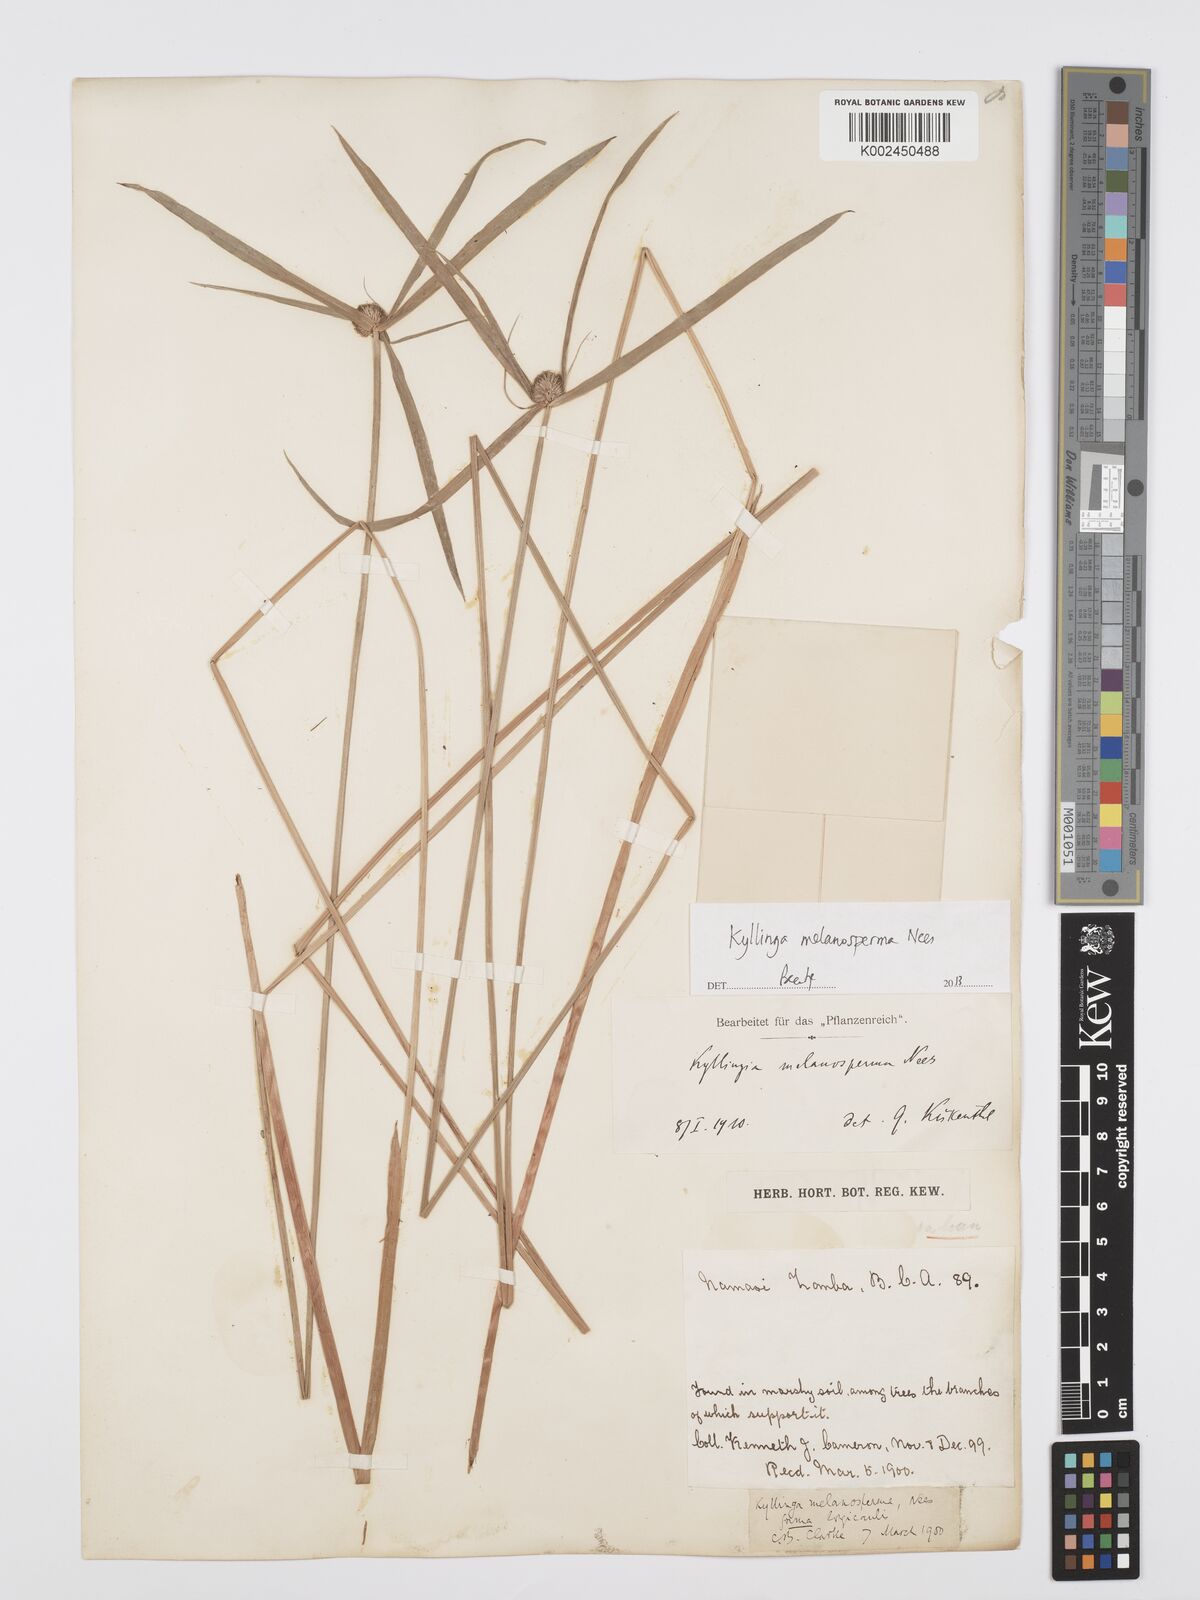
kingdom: Plantae
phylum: Tracheophyta
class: Liliopsida
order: Poales
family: Cyperaceae
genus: Cyperus
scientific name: Cyperus melanospermus
